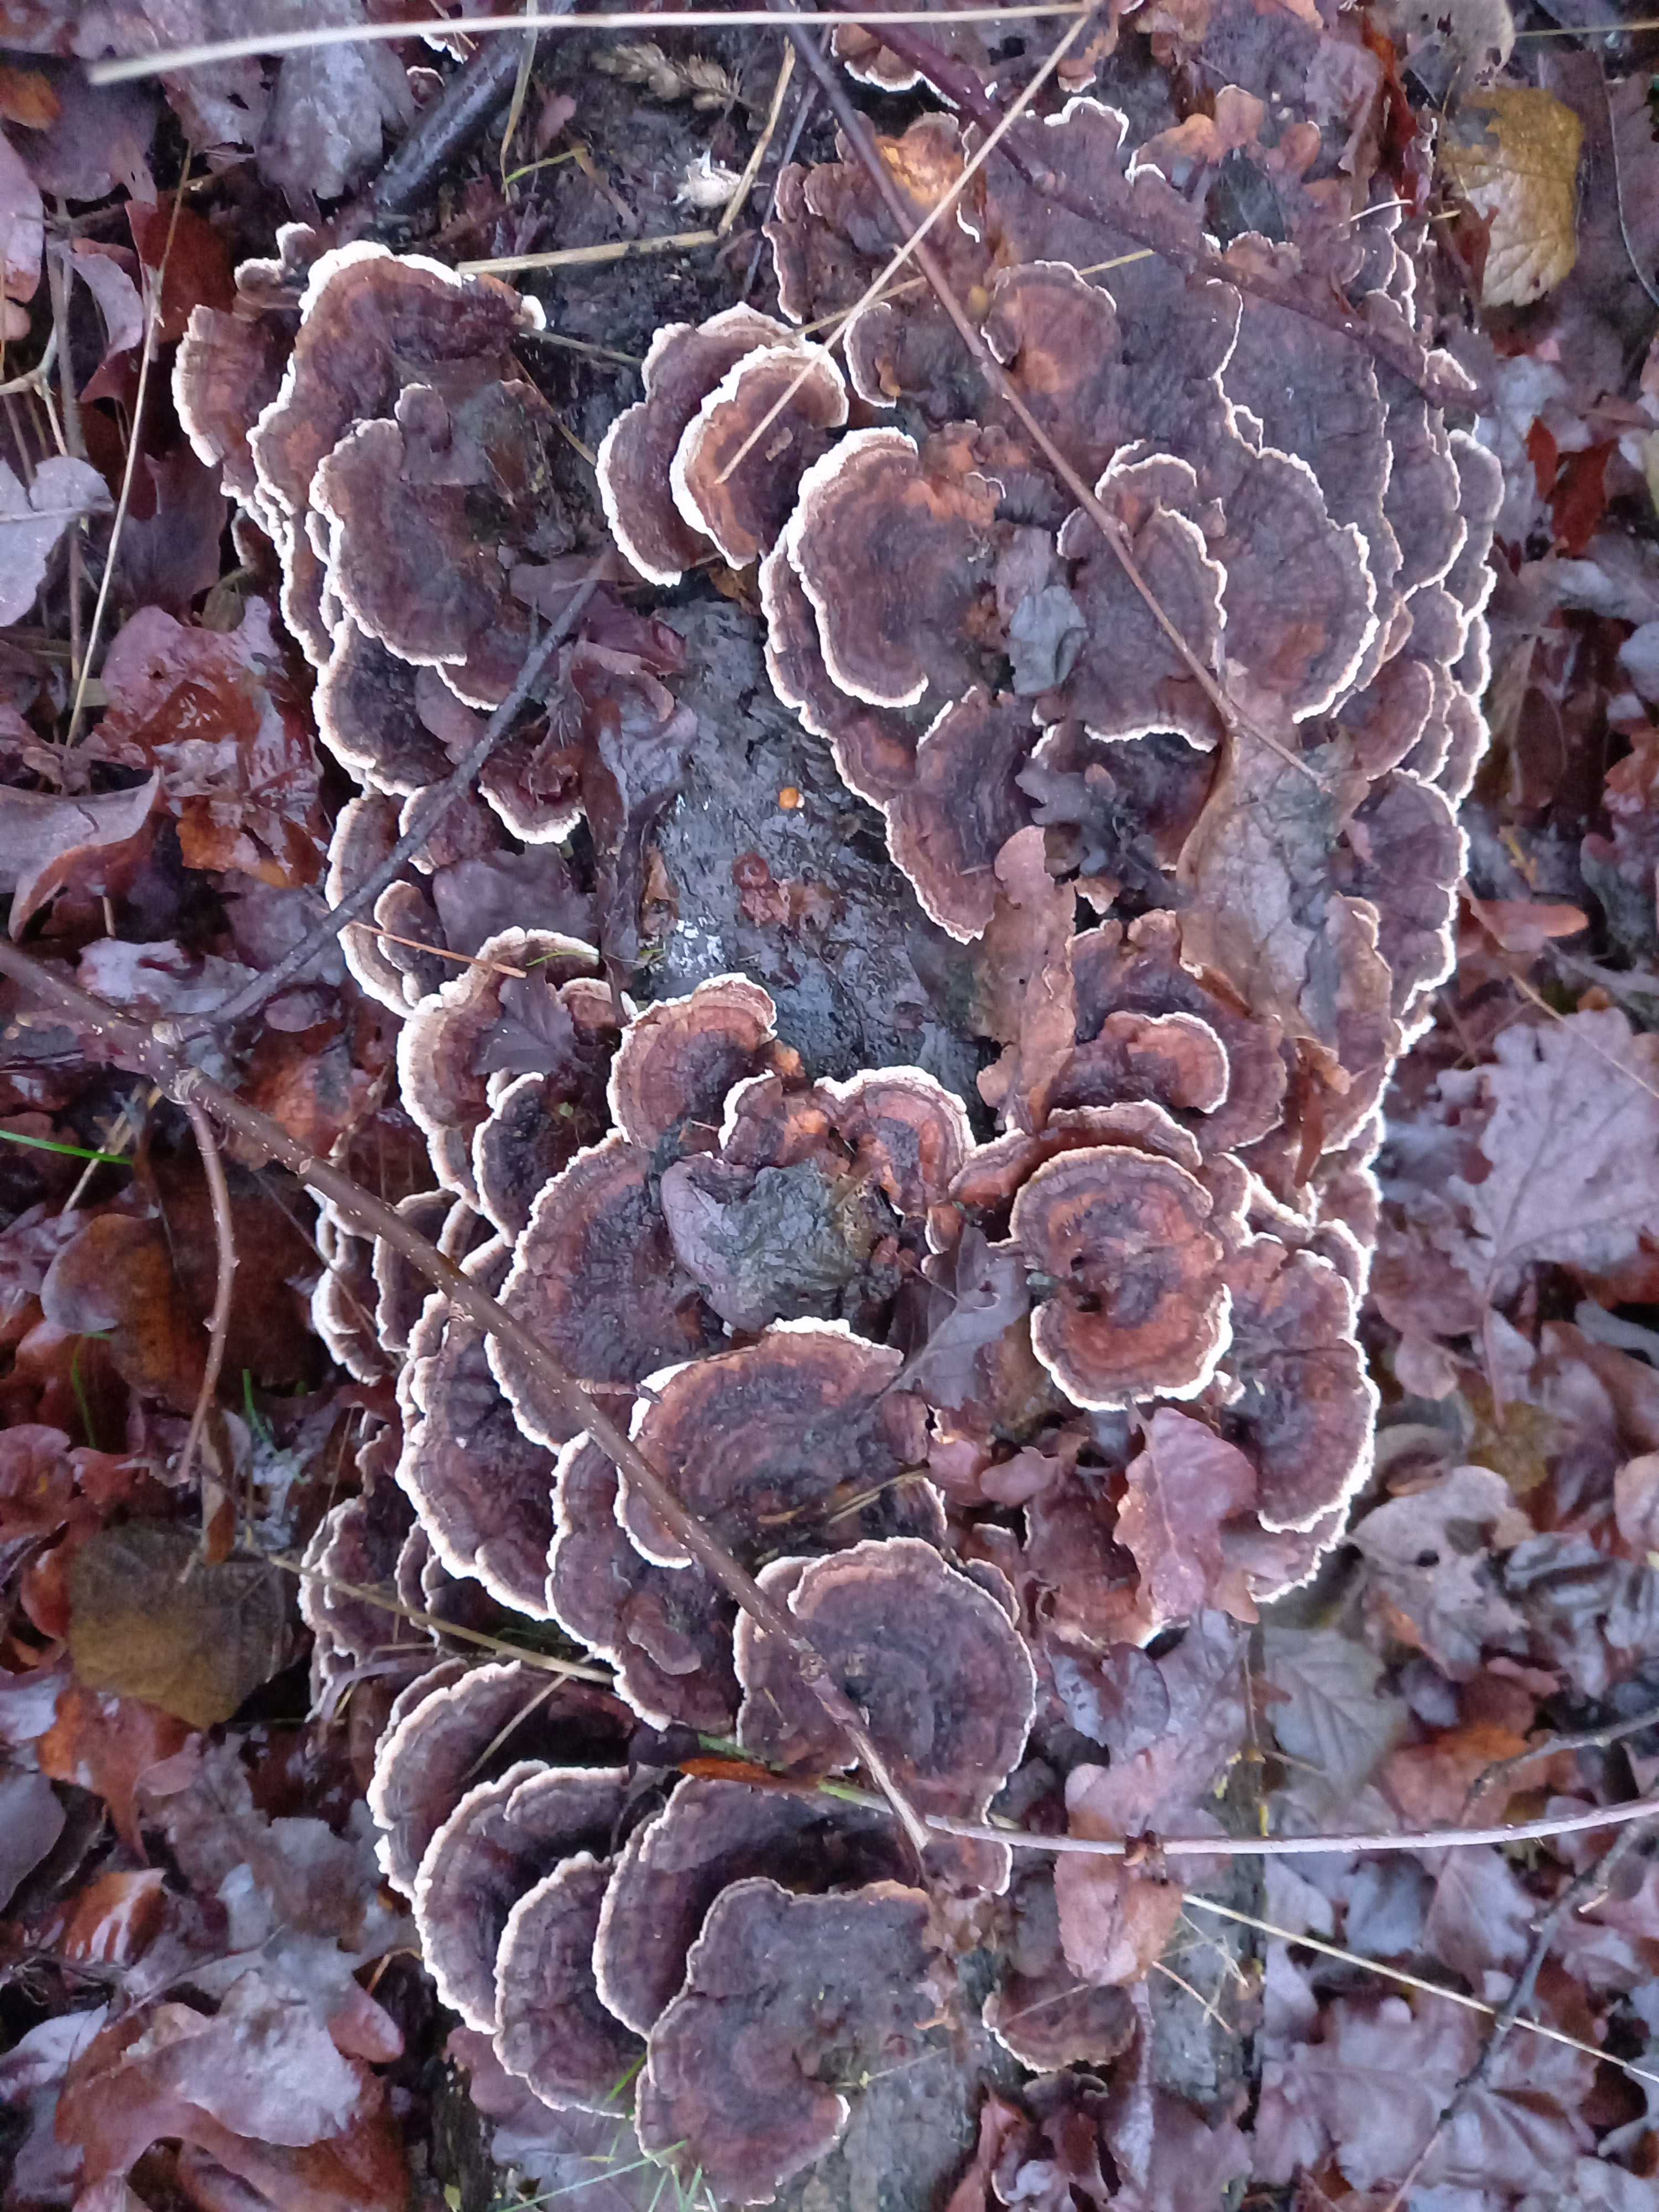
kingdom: Fungi
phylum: Basidiomycota
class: Agaricomycetes
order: Polyporales
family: Polyporaceae
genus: Trametes
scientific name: Trametes versicolor
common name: broget læderporesvamp
